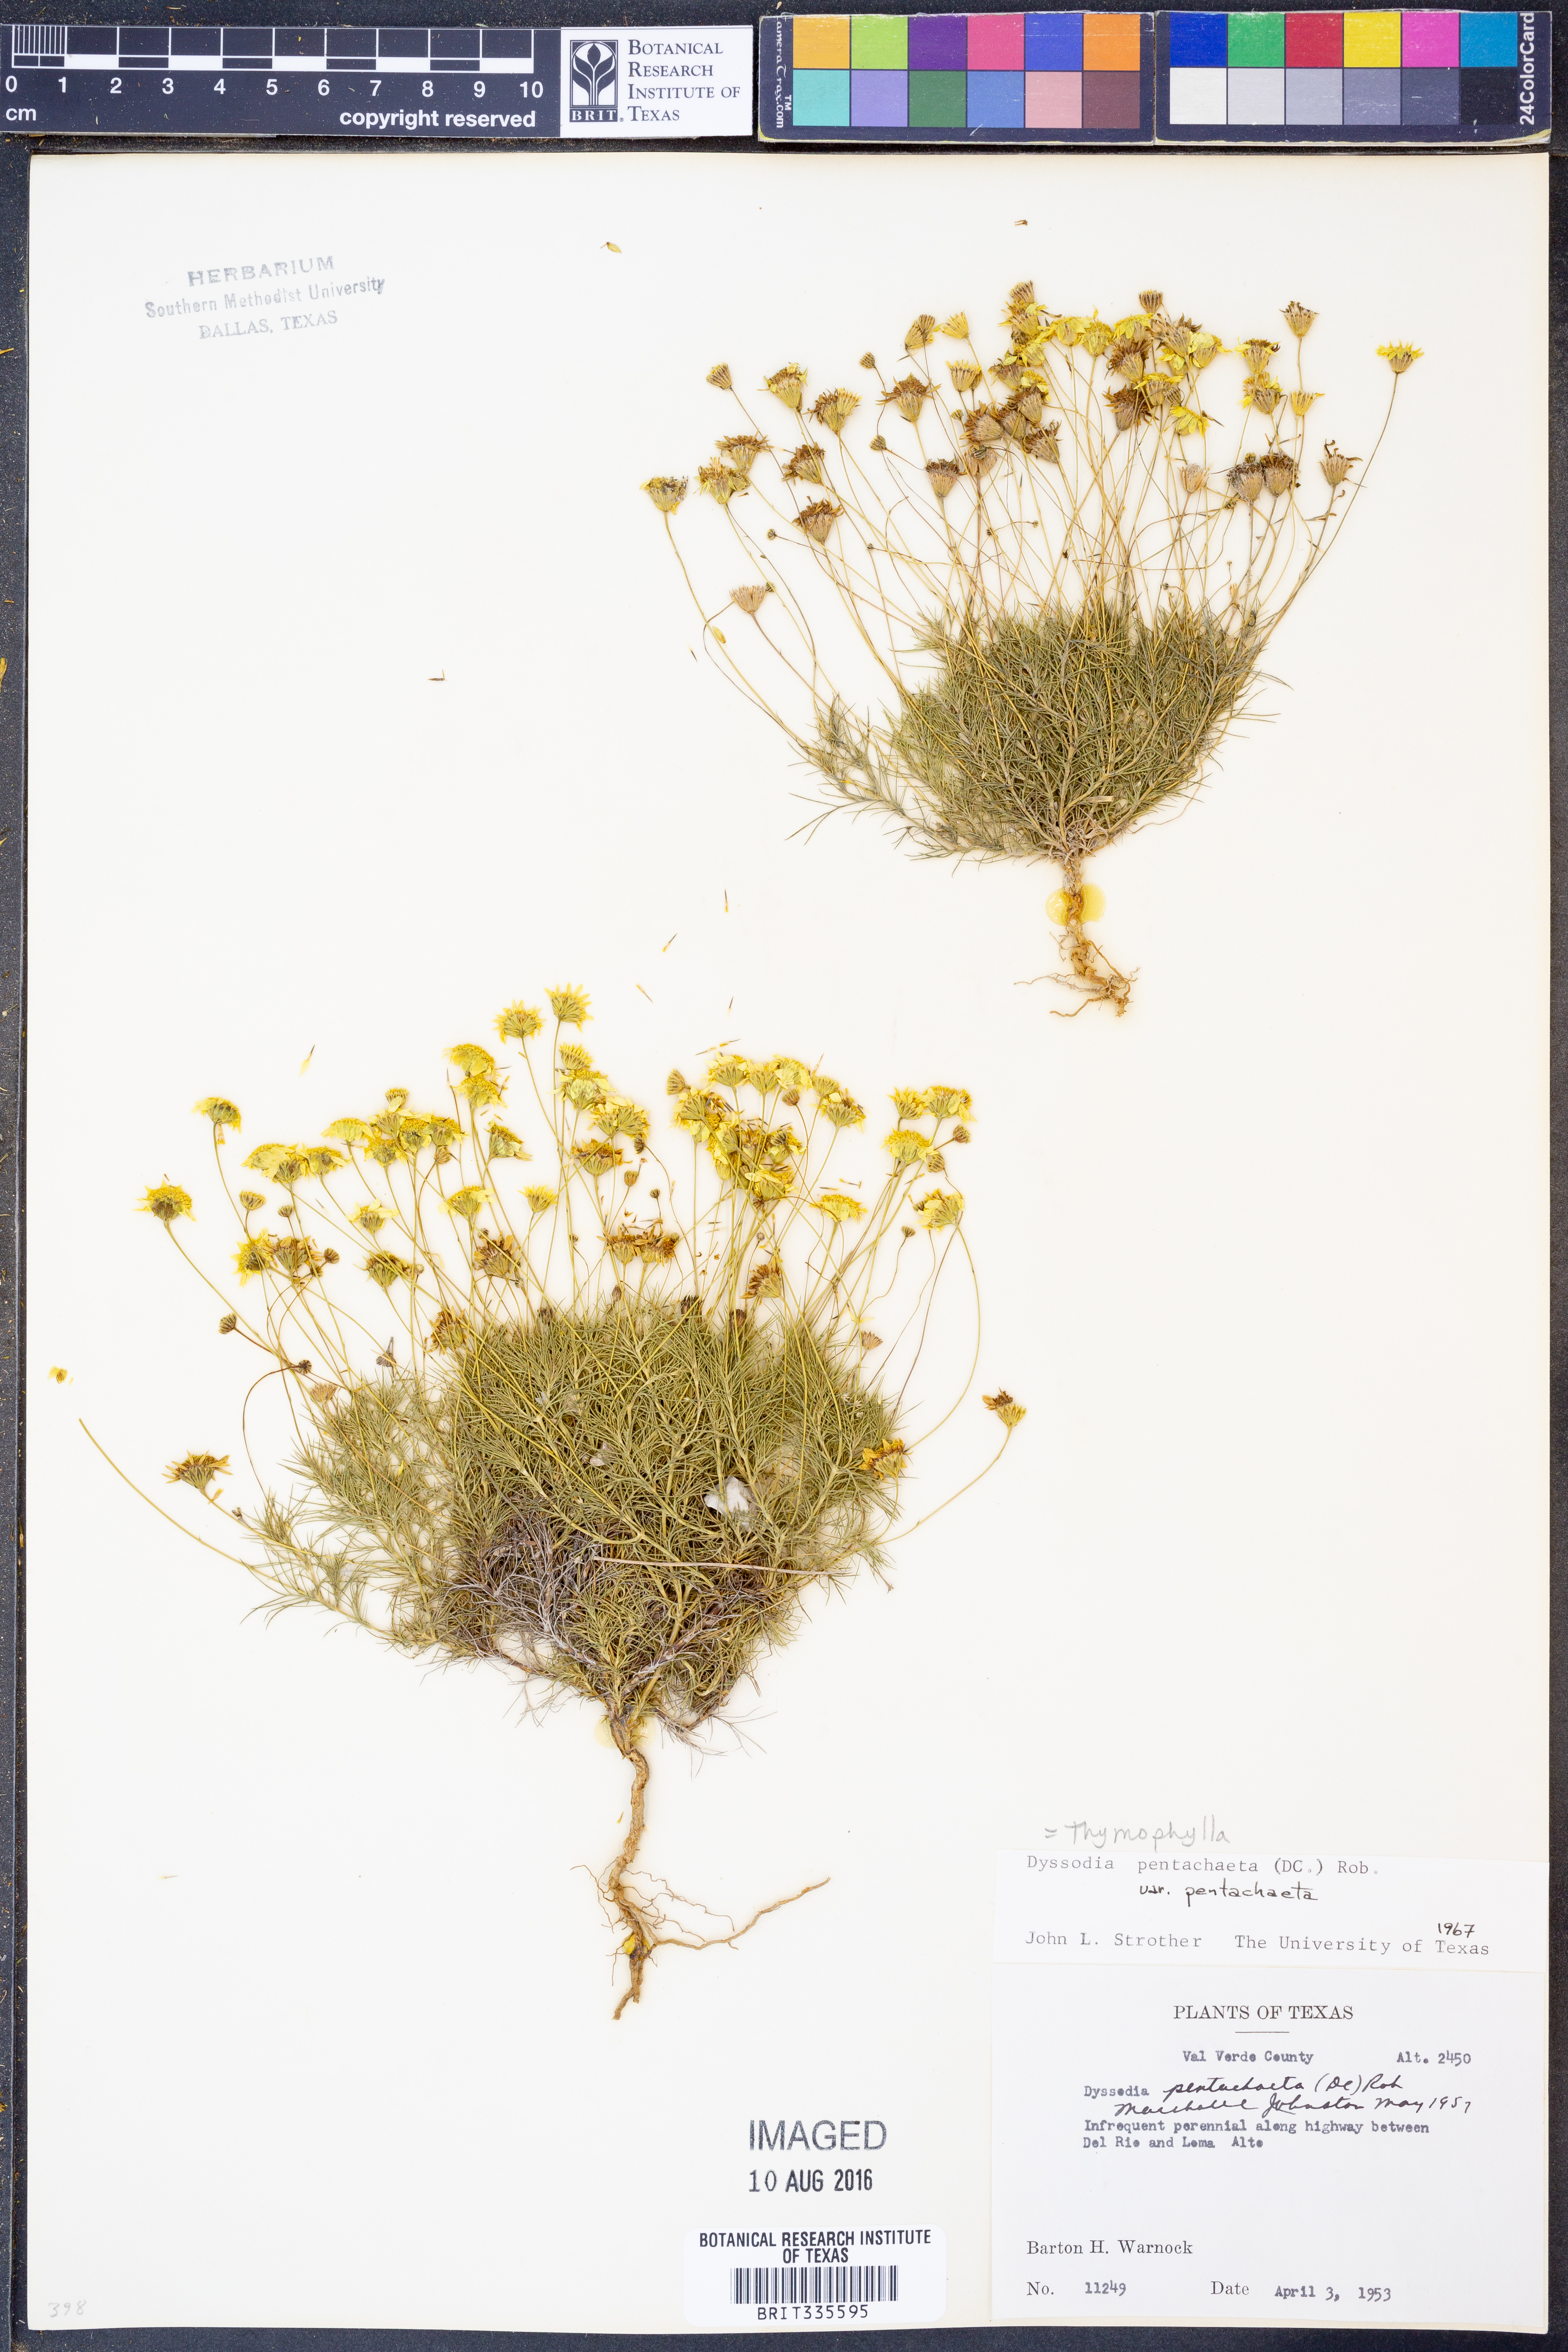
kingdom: Plantae
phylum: Tracheophyta
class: Magnoliopsida
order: Asterales
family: Asteraceae
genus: Thymophylla
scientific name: Thymophylla pentachaeta
